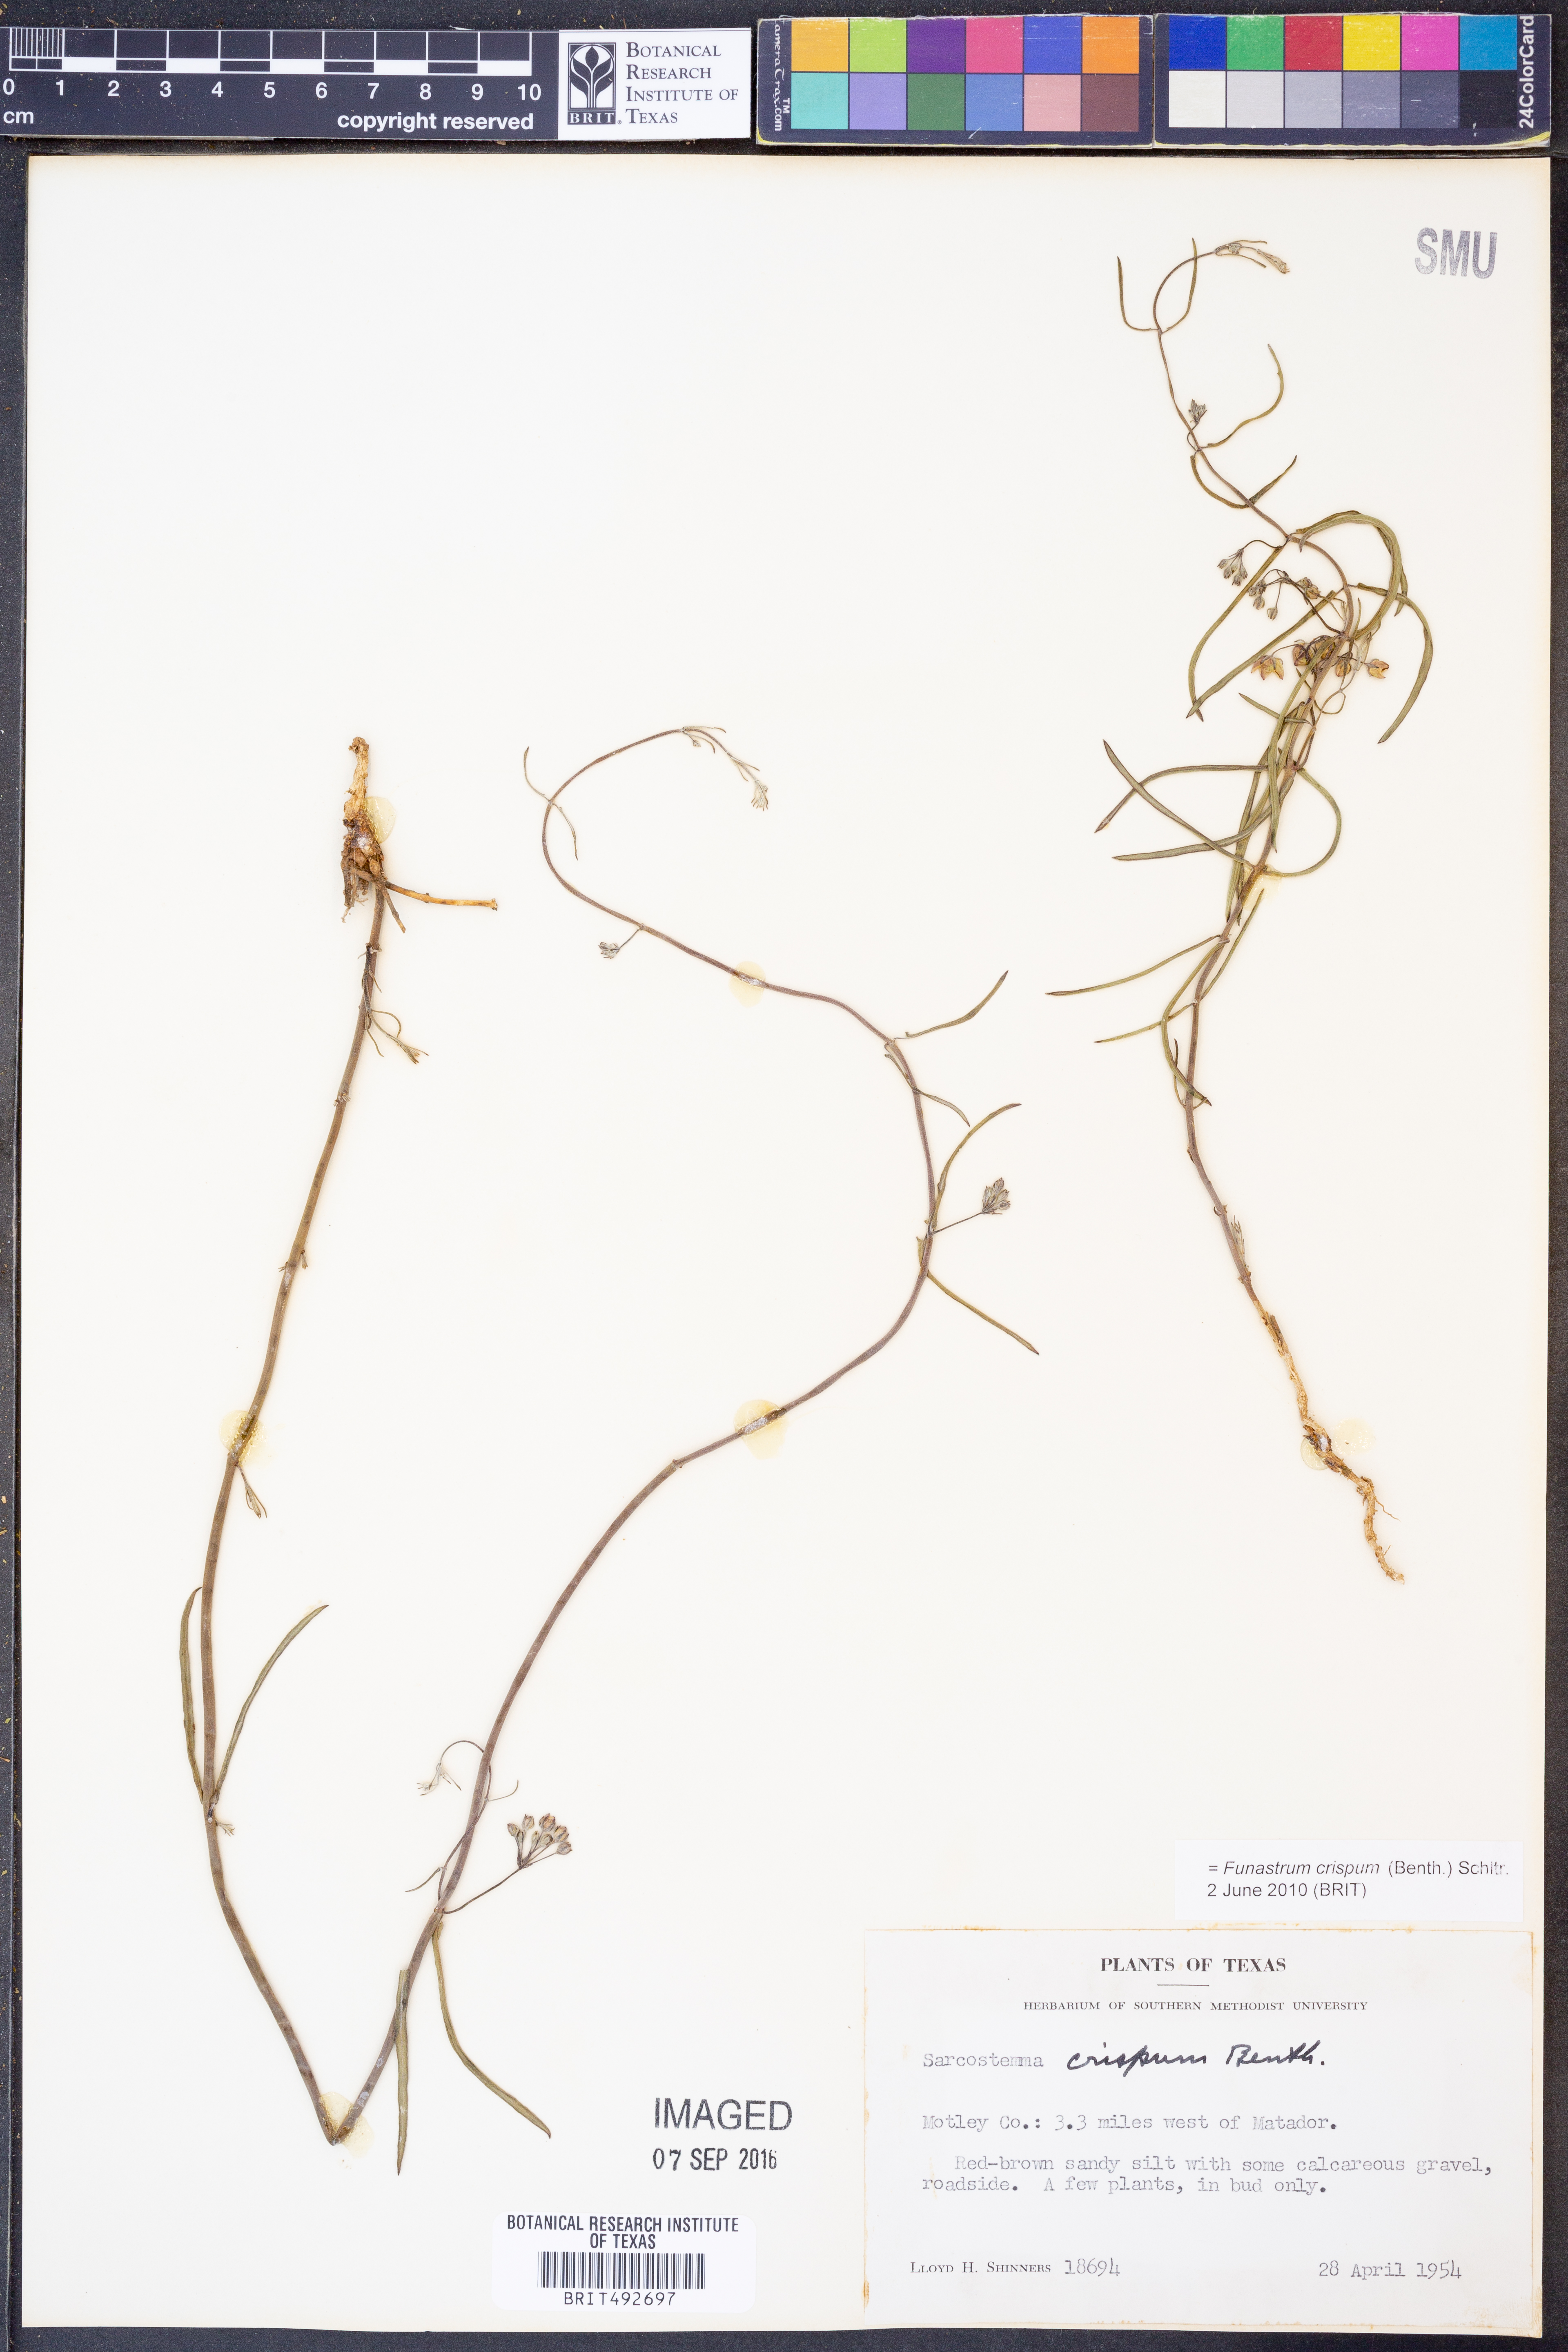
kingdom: Plantae
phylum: Tracheophyta
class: Magnoliopsida
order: Gentianales
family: Apocynaceae
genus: Funastrum
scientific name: Funastrum crispum
